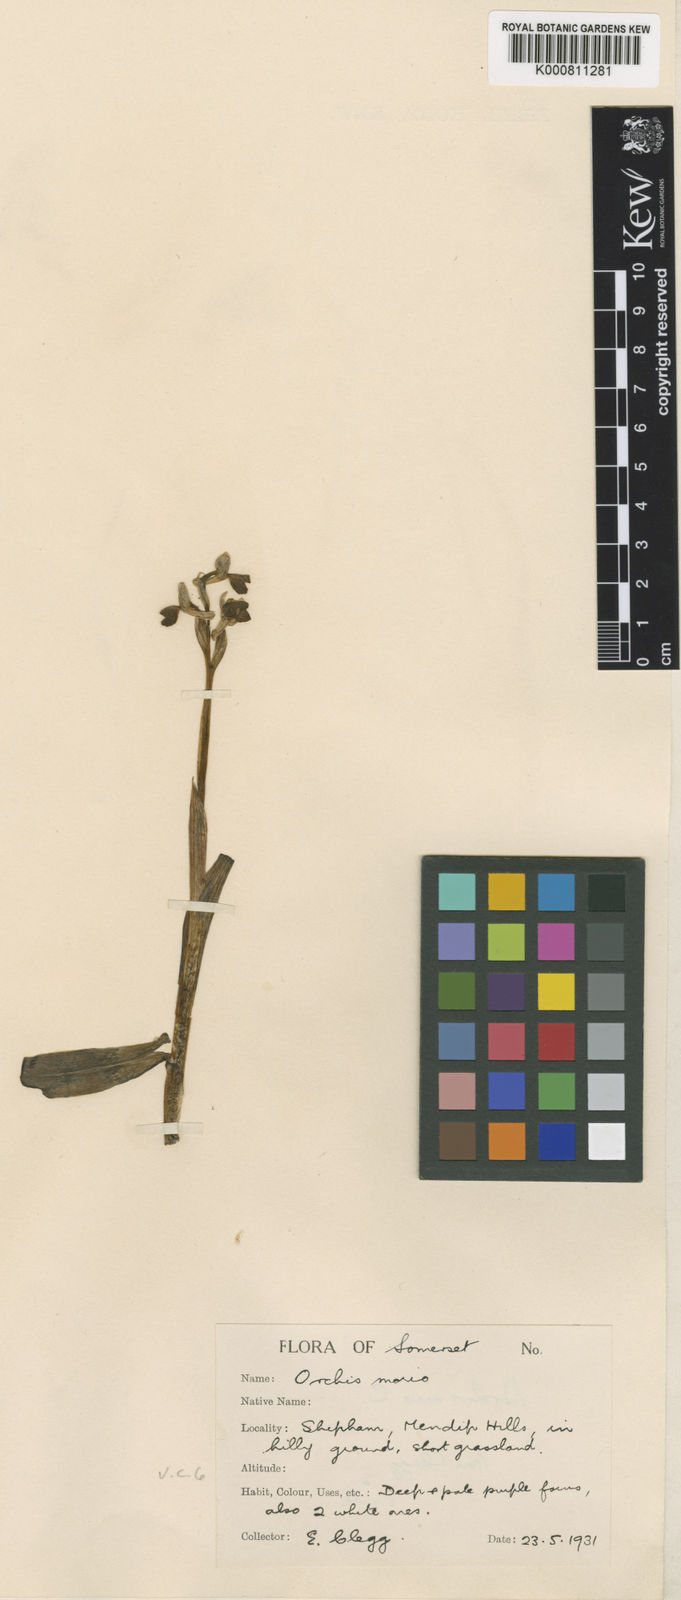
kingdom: Plantae
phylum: Tracheophyta
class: Liliopsida
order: Asparagales
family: Orchidaceae
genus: Anacamptis
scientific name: Anacamptis morio
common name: Green-winged orchid
